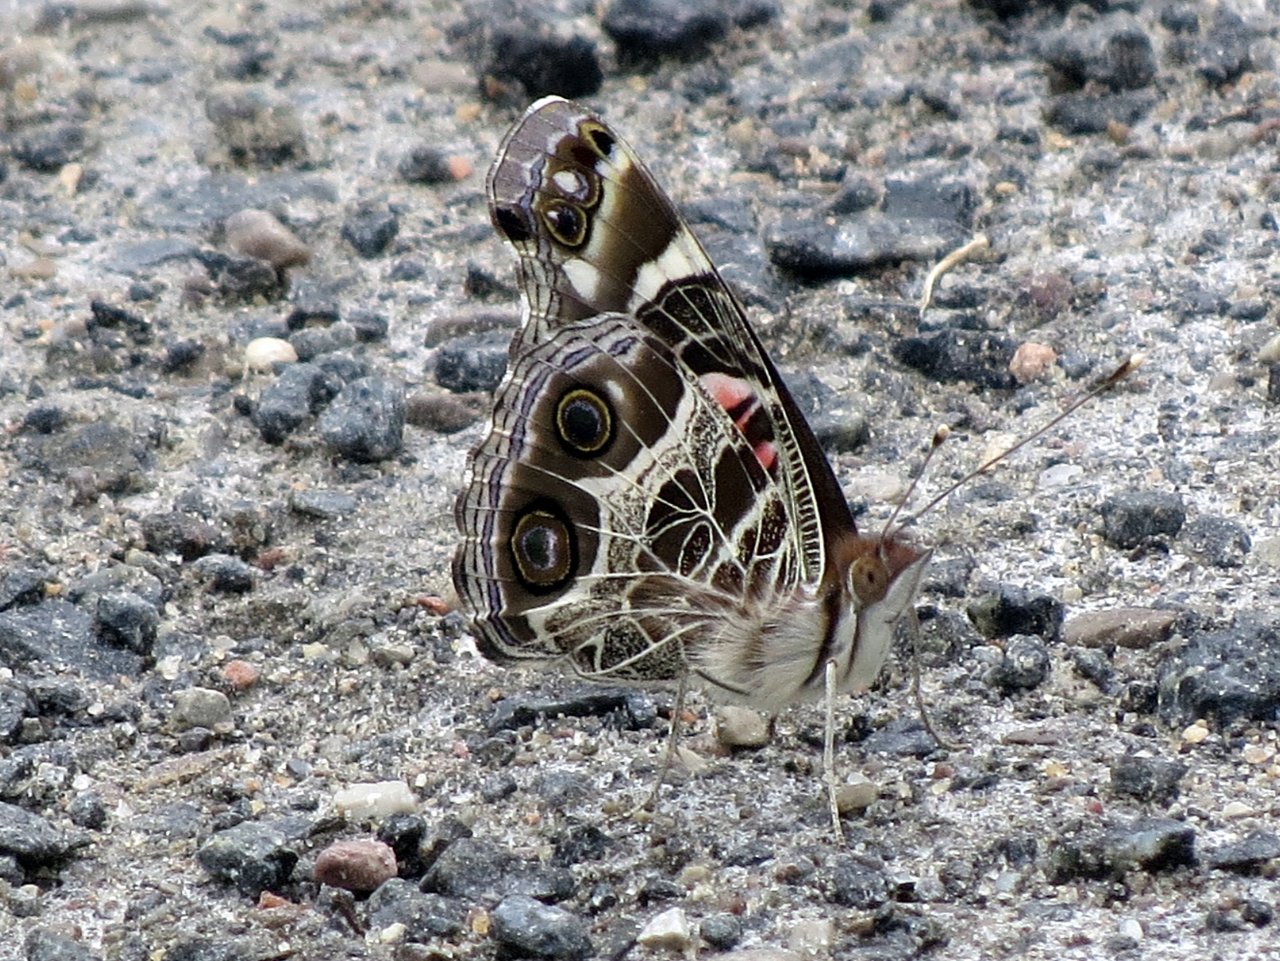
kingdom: Animalia
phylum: Arthropoda
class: Insecta
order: Lepidoptera
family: Nymphalidae
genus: Vanessa
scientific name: Vanessa virginiensis
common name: American Lady
